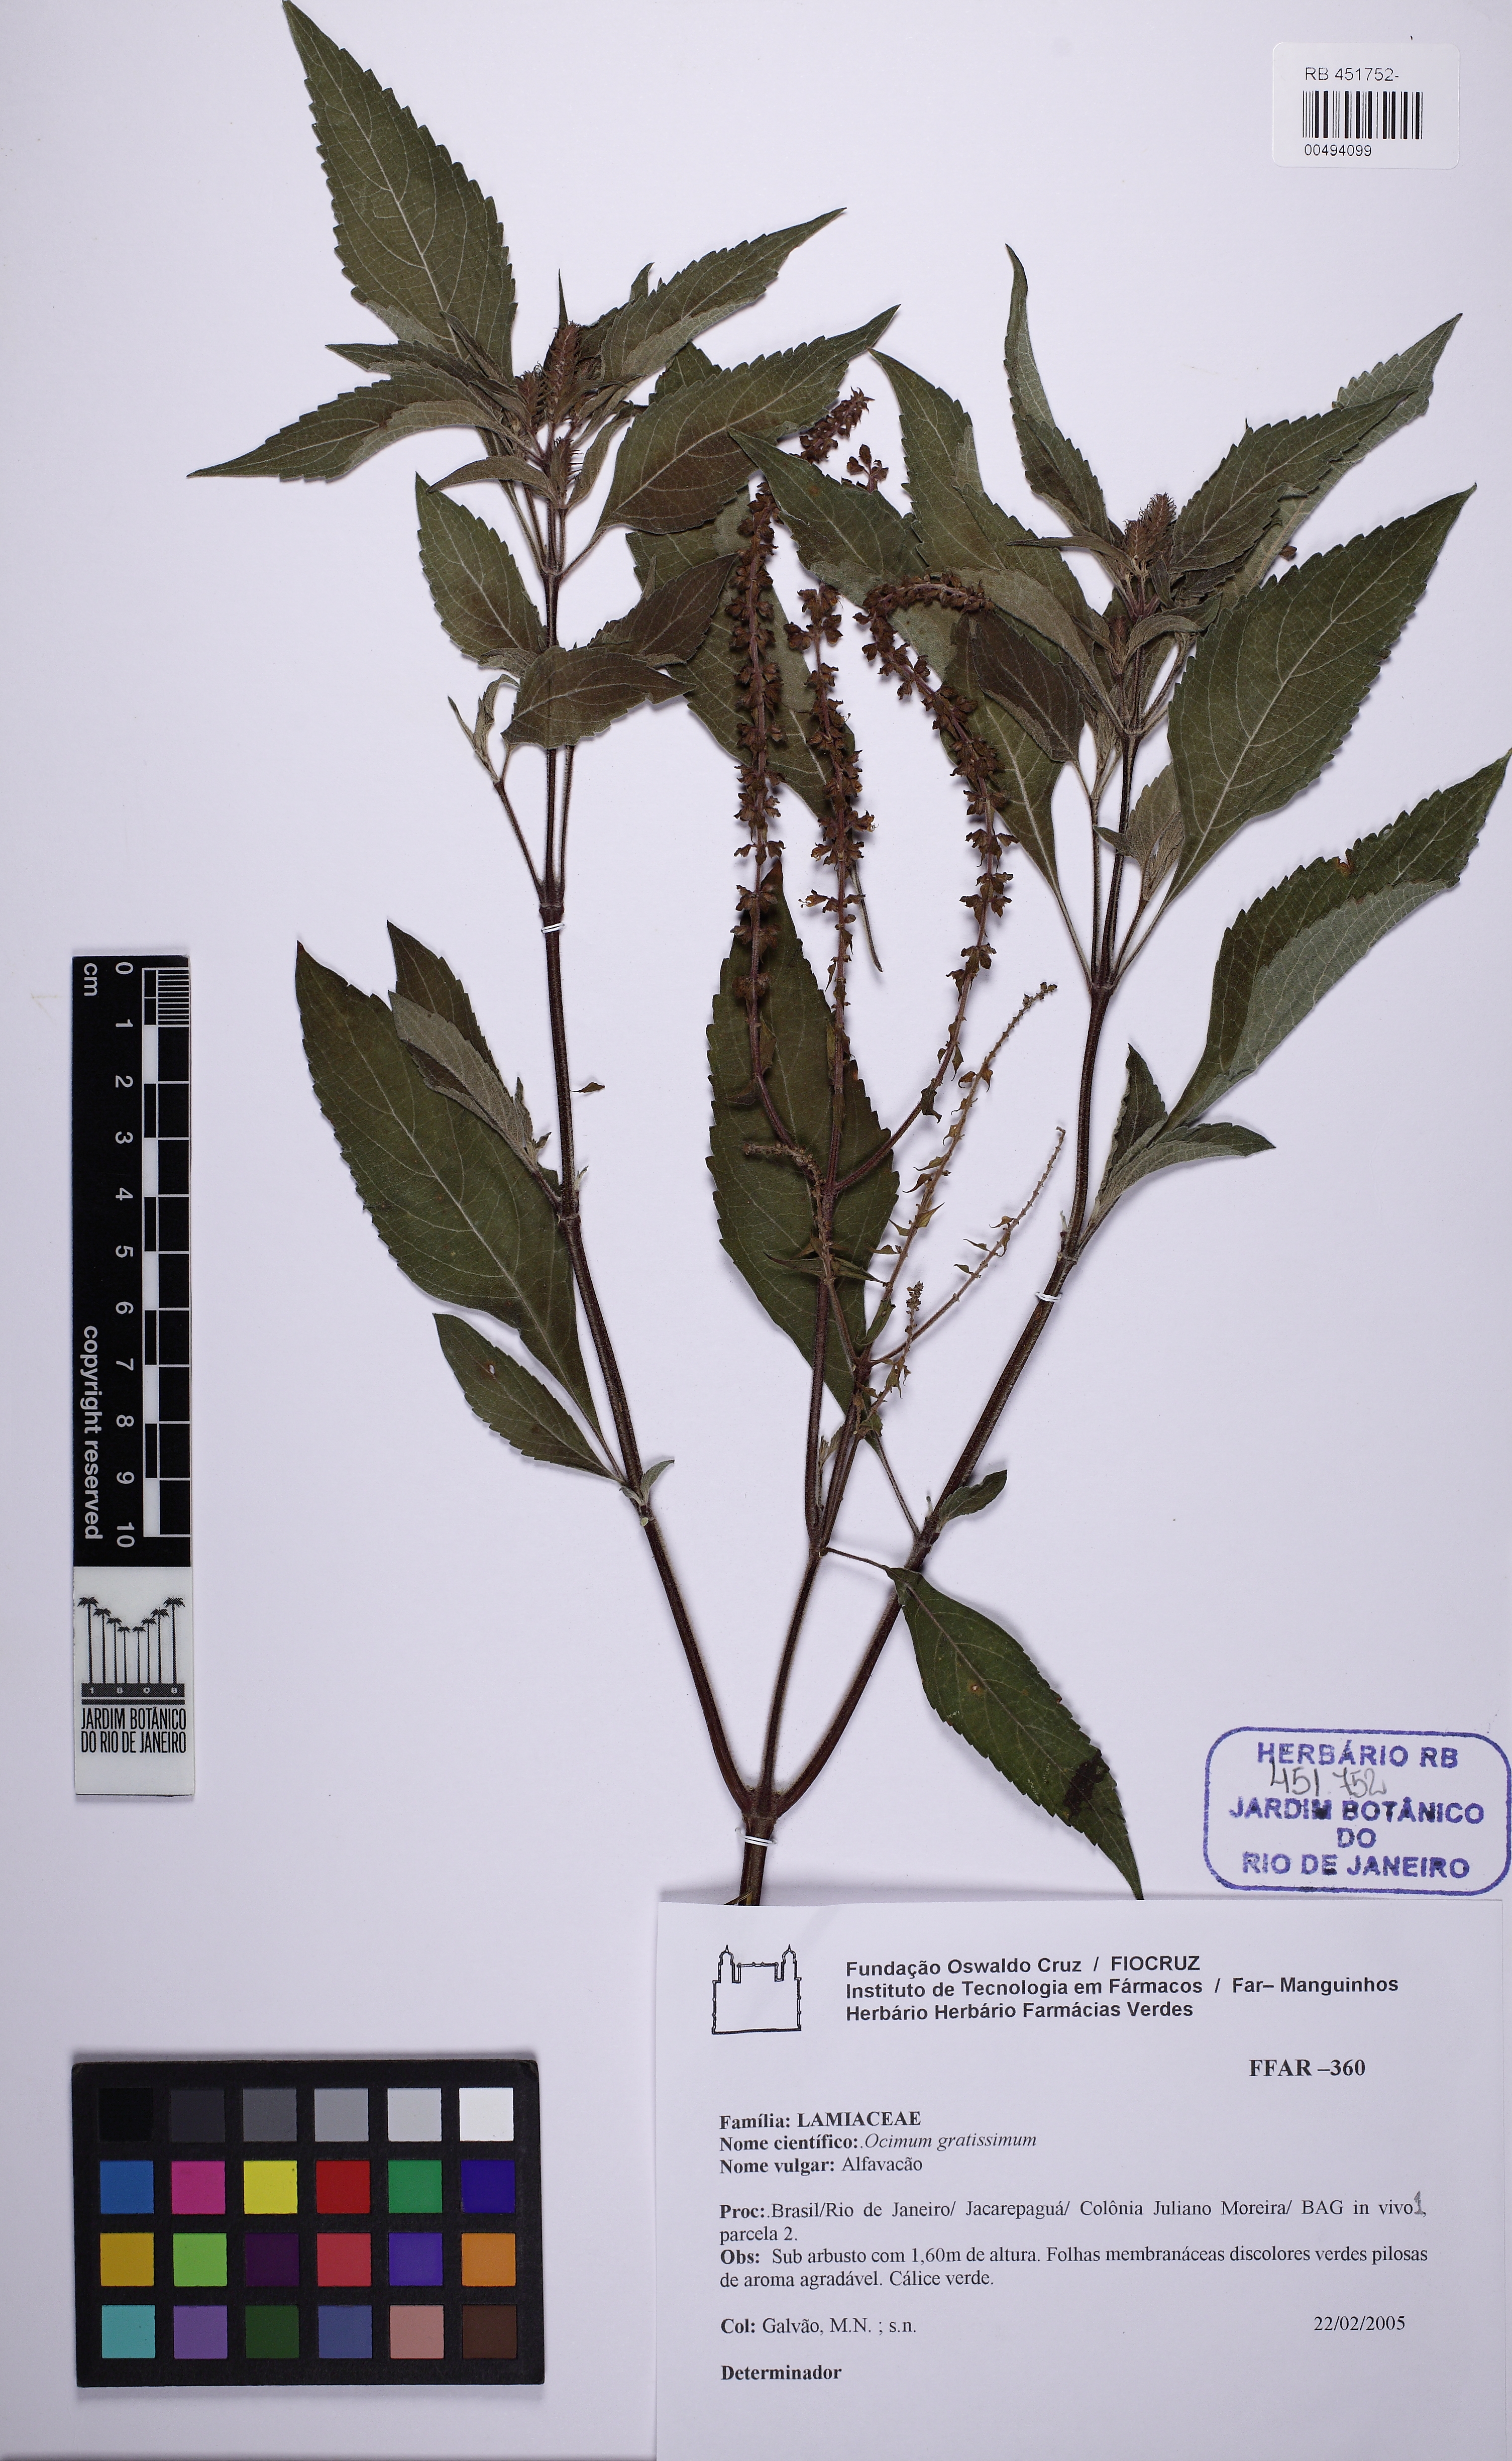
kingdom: Plantae
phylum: Tracheophyta
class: Magnoliopsida
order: Lamiales
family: Lamiaceae
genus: Ocimum
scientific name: Ocimum gratissimum
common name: African basil
